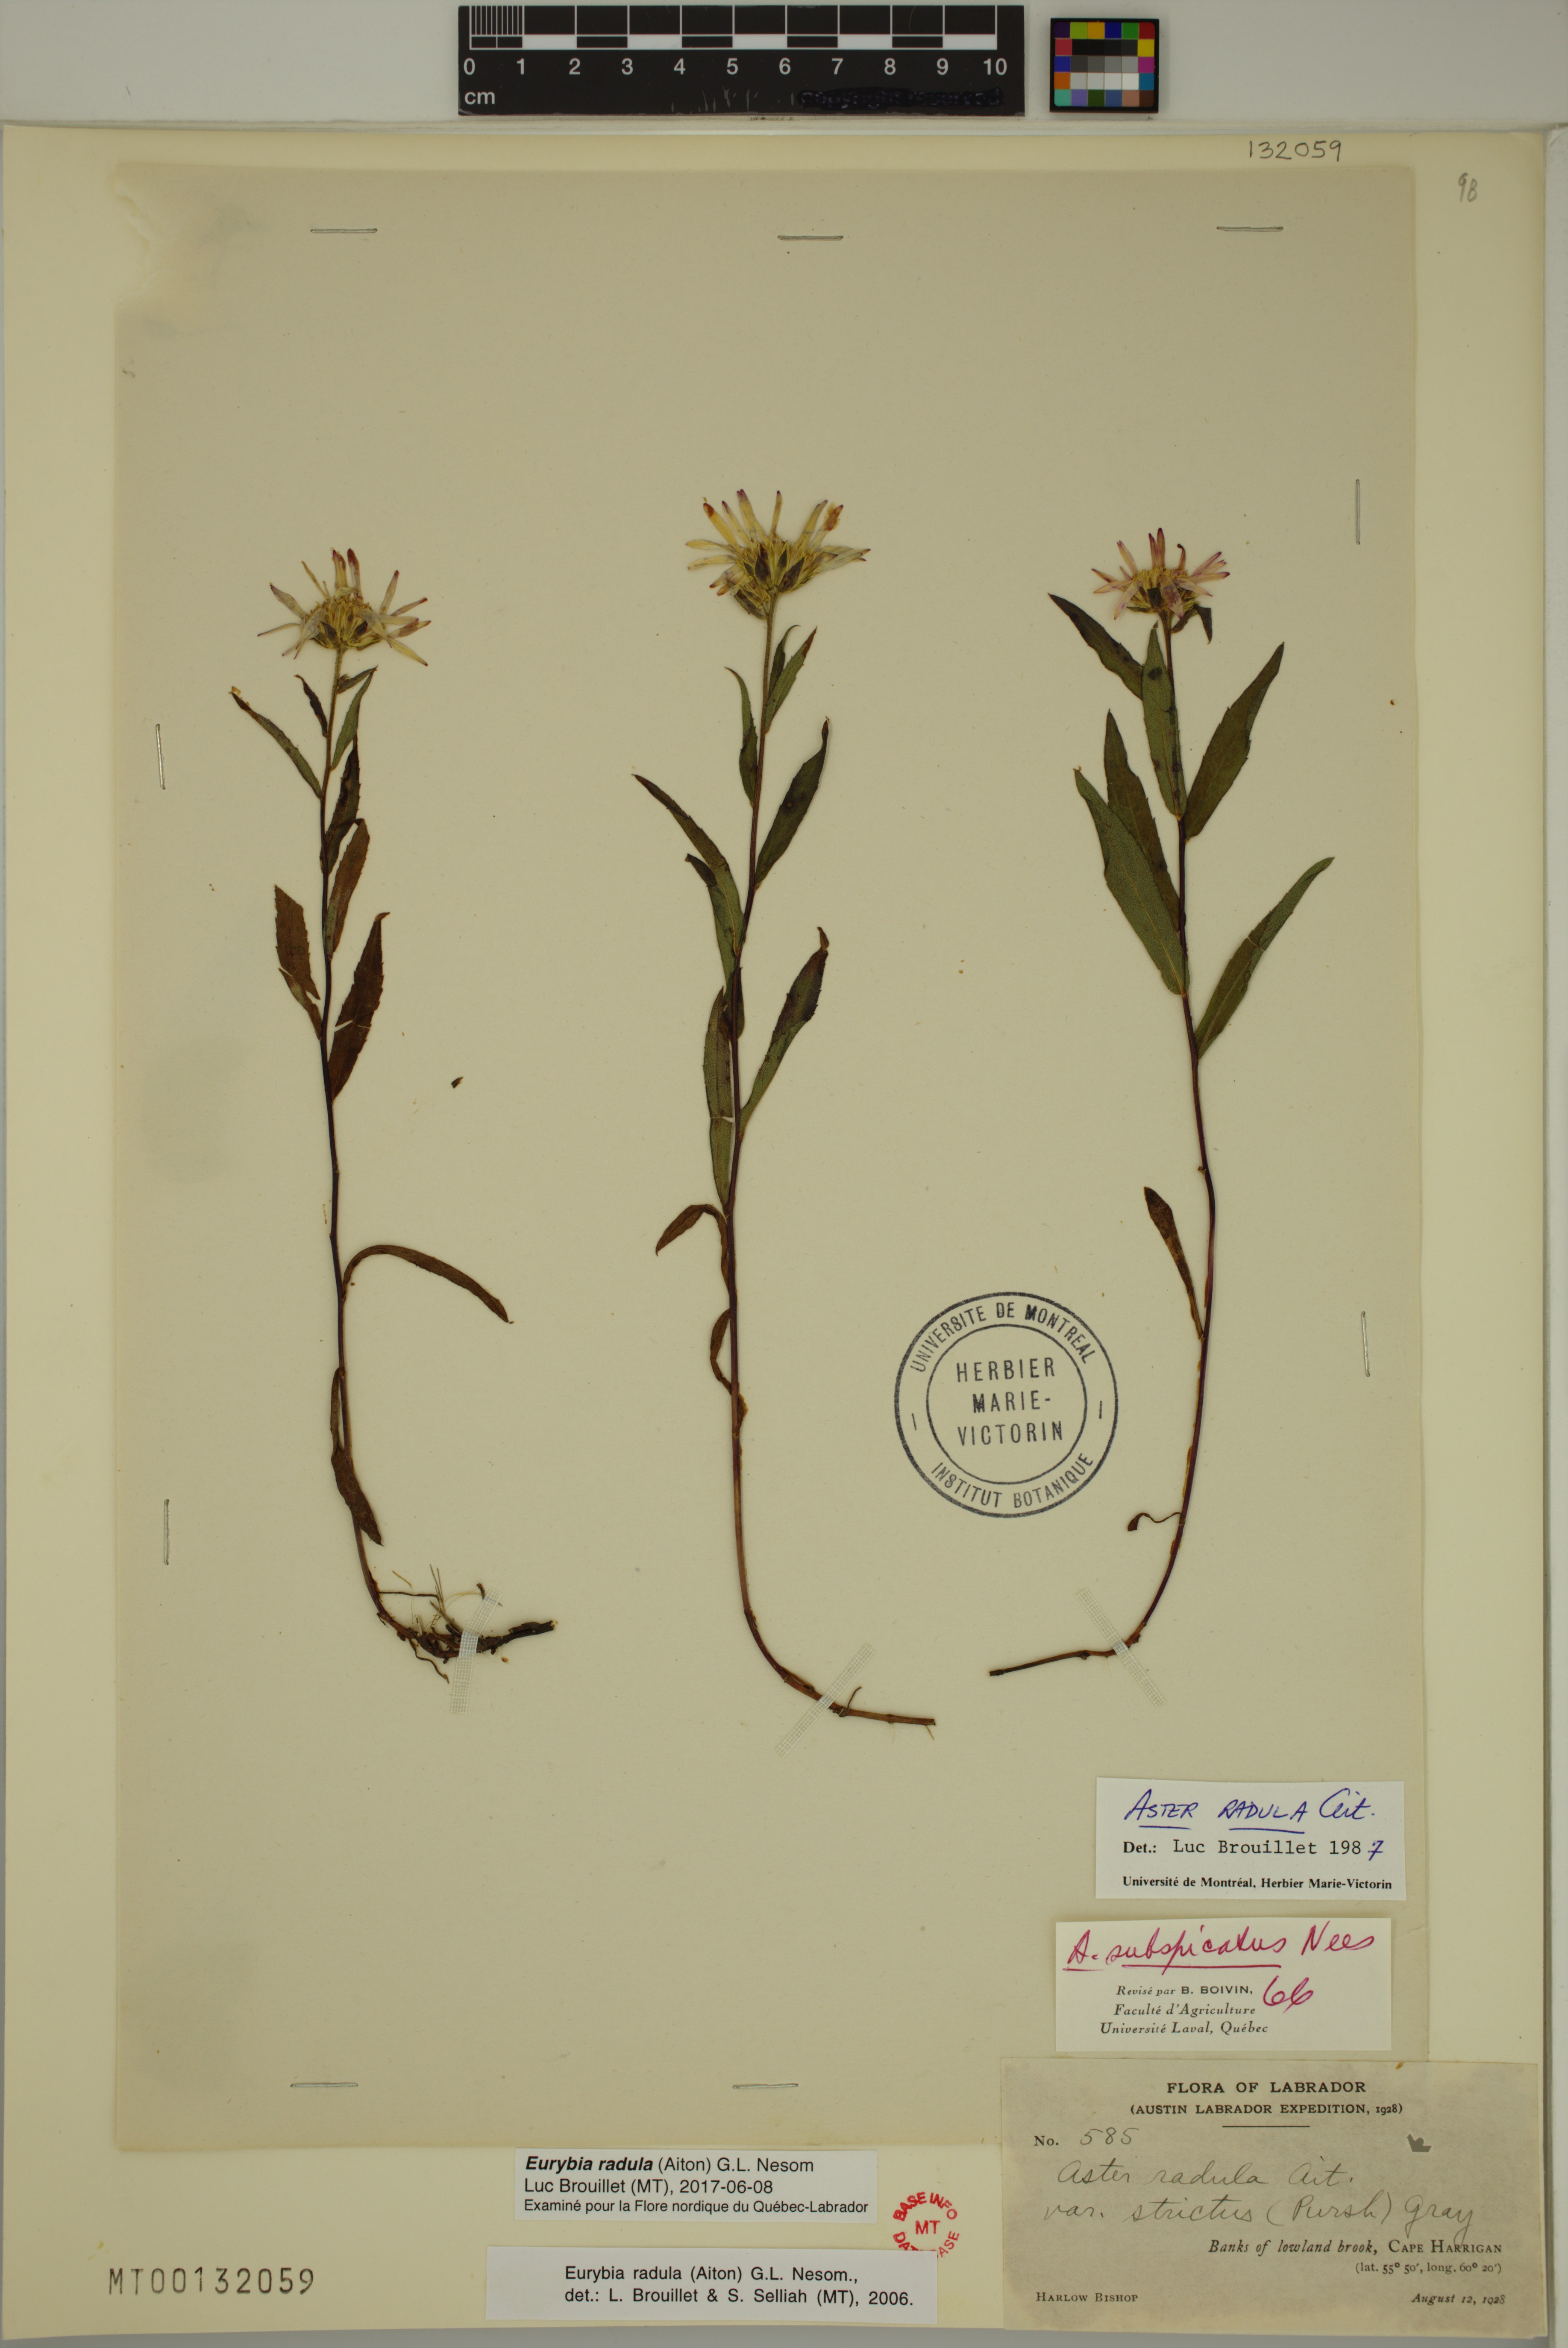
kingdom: Plantae
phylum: Tracheophyta
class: Magnoliopsida
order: Asterales
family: Asteraceae
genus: Eurybia
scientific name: Eurybia radula
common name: Low rough aster
